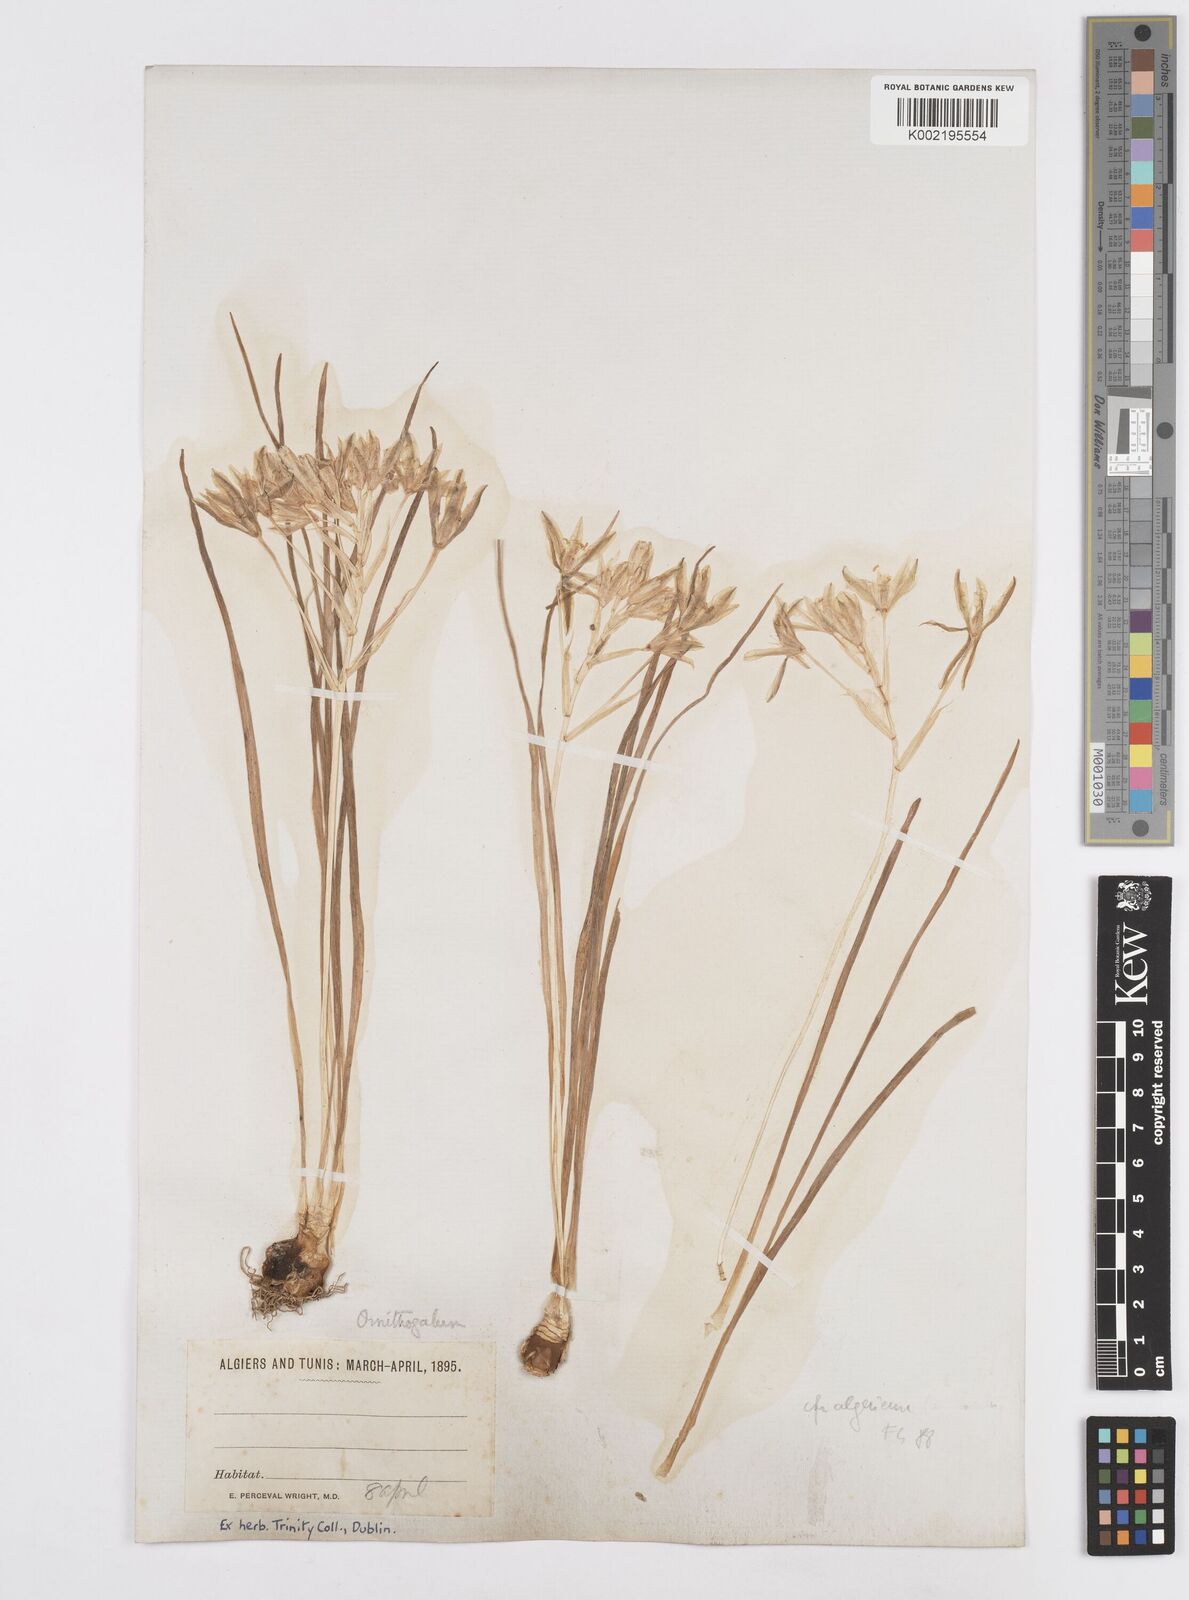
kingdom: Plantae
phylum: Tracheophyta
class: Liliopsida
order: Asparagales
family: Asparagaceae
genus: Ornithogalum
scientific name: Ornithogalum umbellatum
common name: Garden star-of-bethlehem
